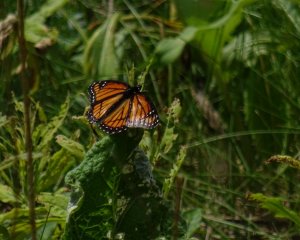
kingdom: Animalia
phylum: Arthropoda
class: Insecta
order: Lepidoptera
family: Nymphalidae
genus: Limenitis
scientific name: Limenitis archippus
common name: Viceroy
